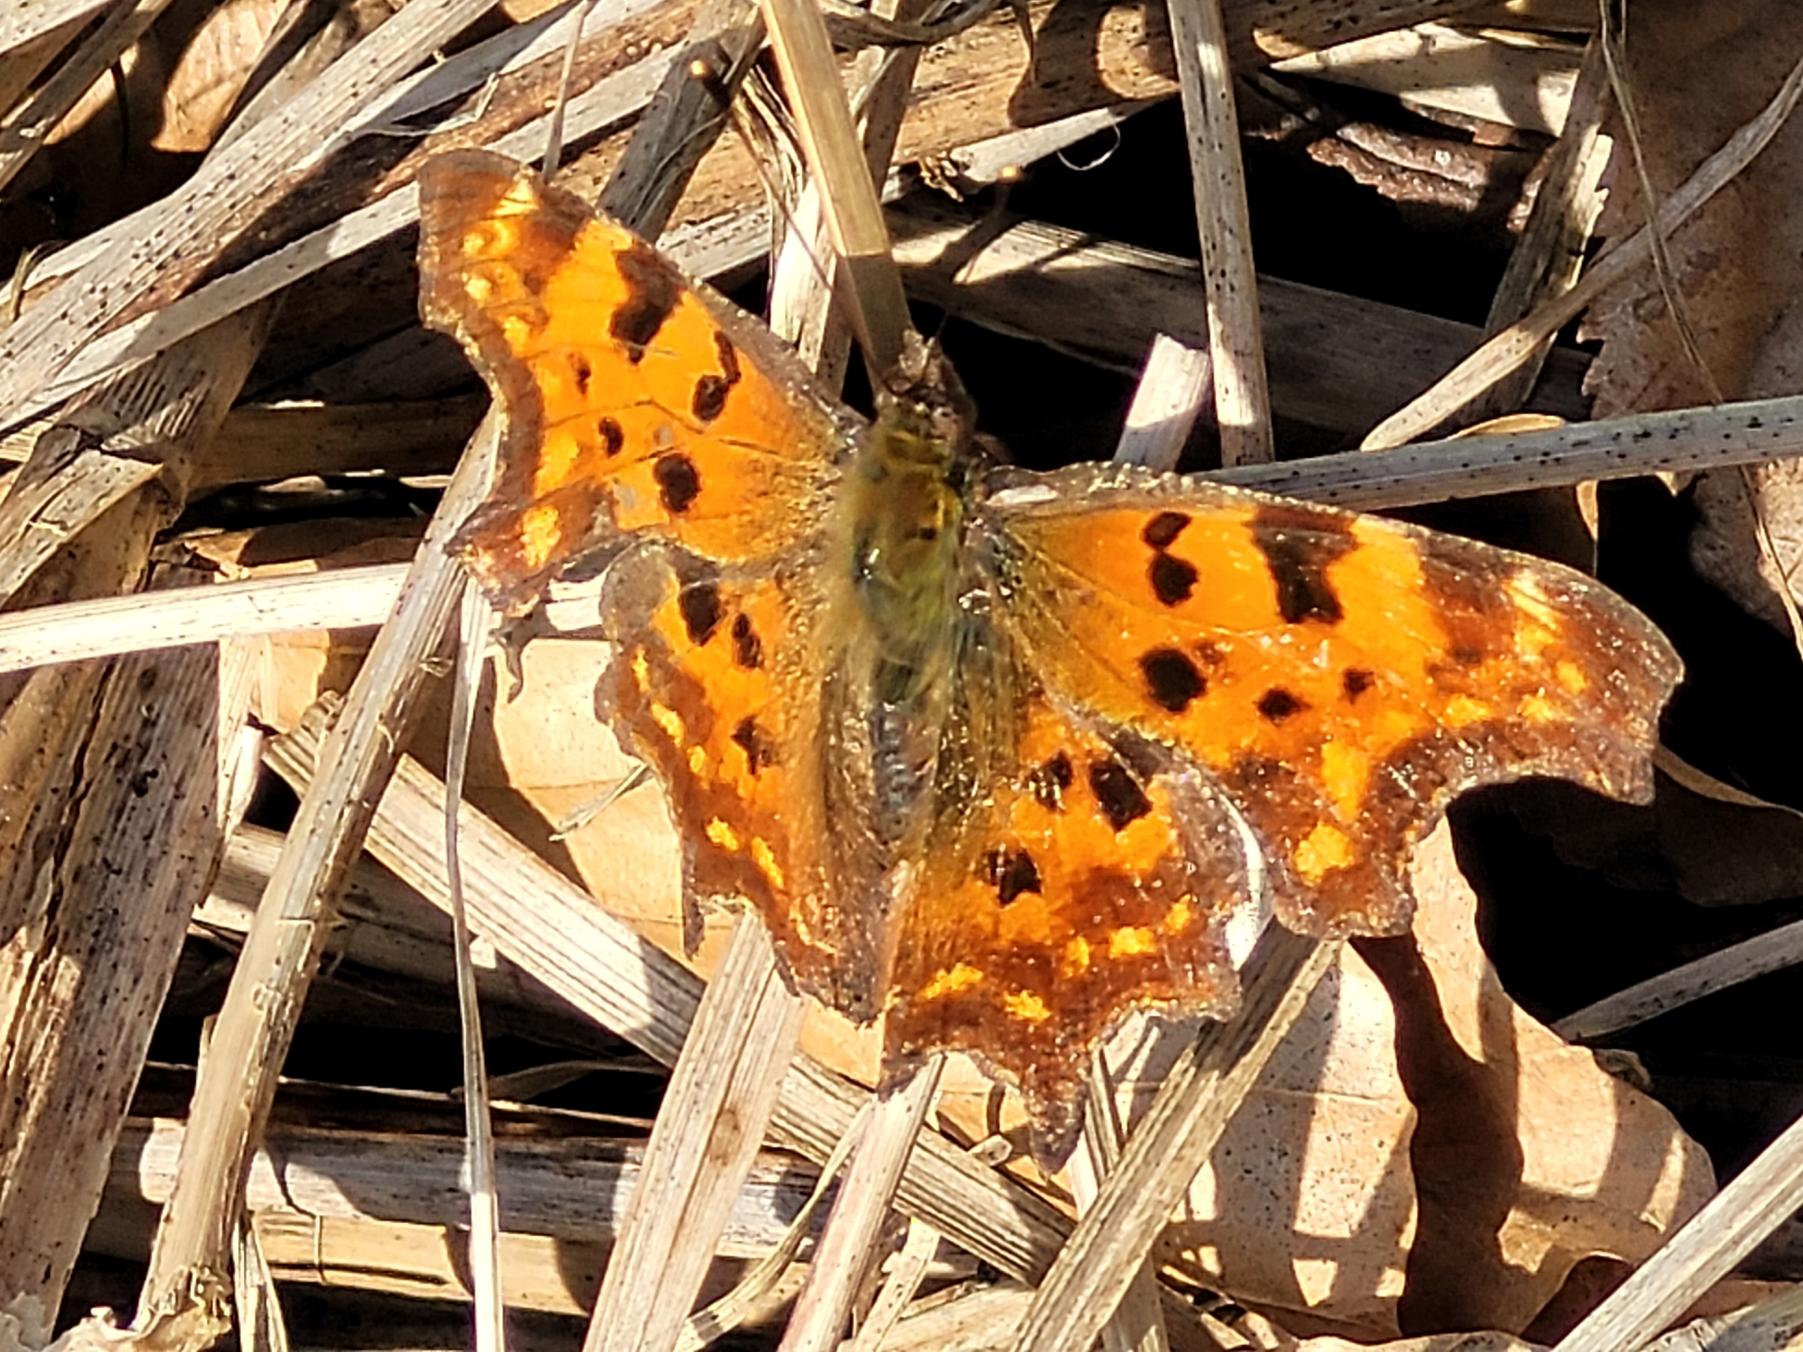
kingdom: Animalia
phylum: Arthropoda
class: Insecta
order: Lepidoptera
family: Nymphalidae
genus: Polygonia
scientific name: Polygonia c-album
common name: Det hvide C
